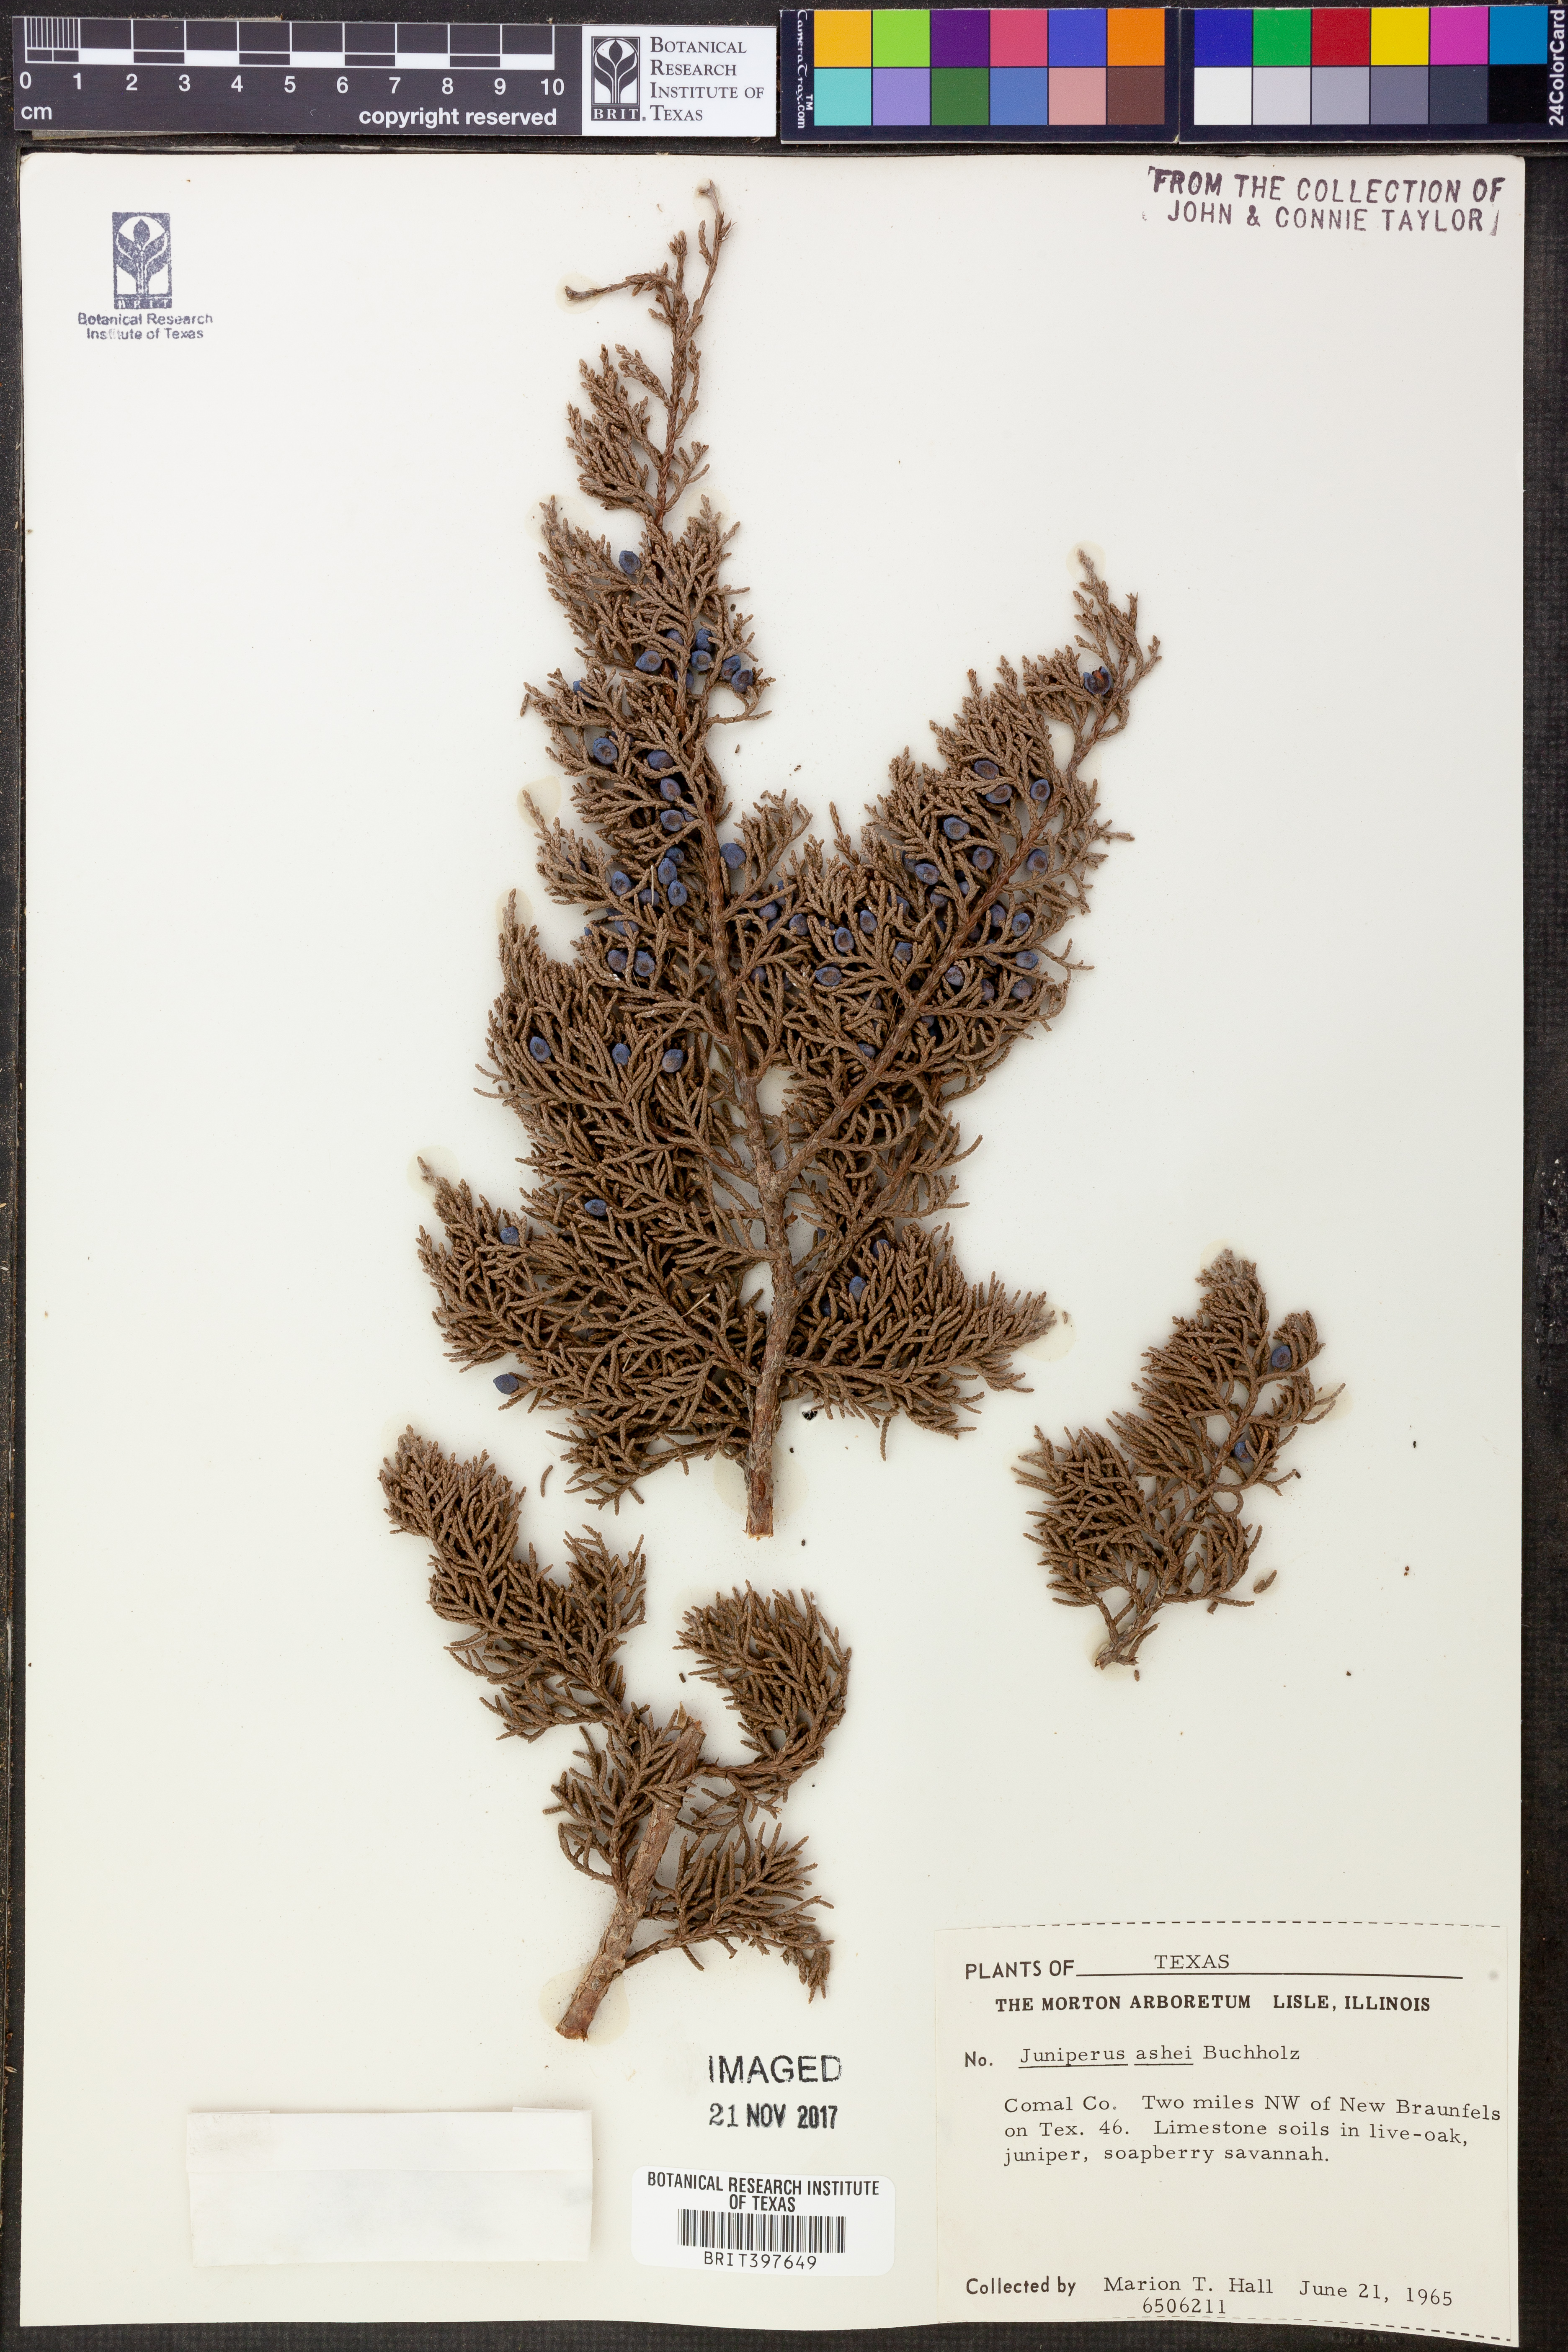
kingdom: Plantae
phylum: Tracheophyta
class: Pinopsida
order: Pinales
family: Cupressaceae
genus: Juniperus
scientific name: Juniperus ashei
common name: Mexican juniper
